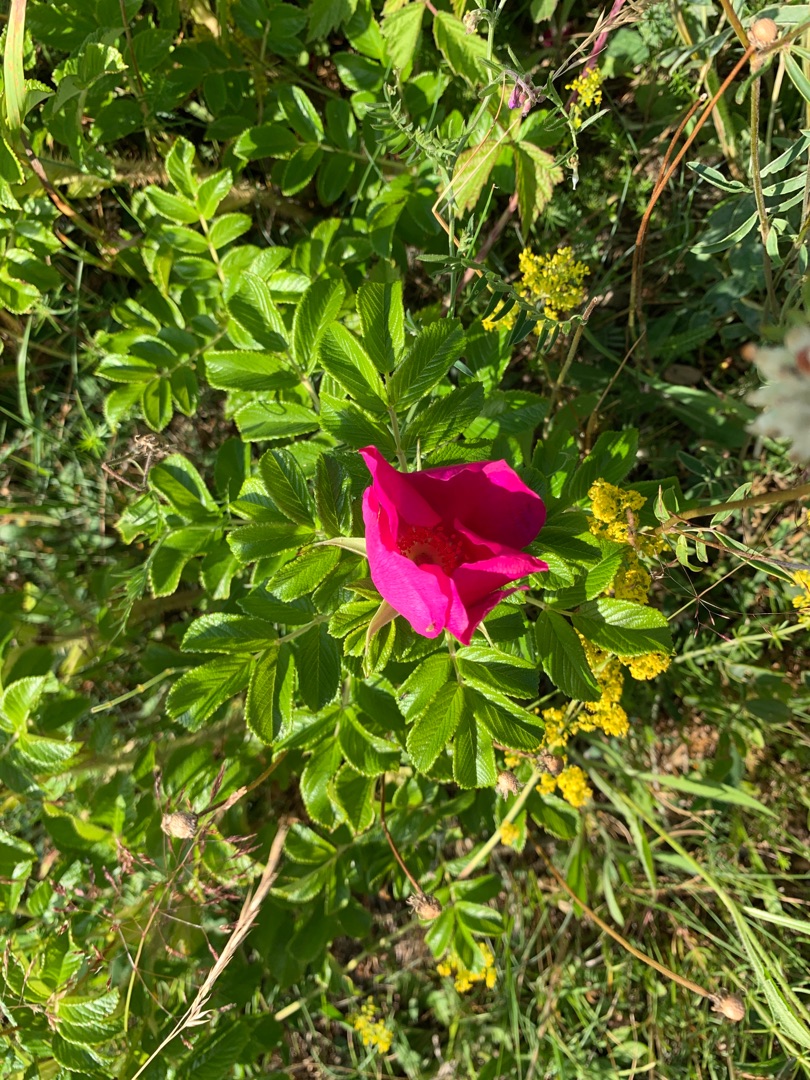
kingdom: Plantae
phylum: Tracheophyta
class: Magnoliopsida
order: Rosales
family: Rosaceae
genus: Rosa
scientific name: Rosa rugosa
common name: Rynket rose
